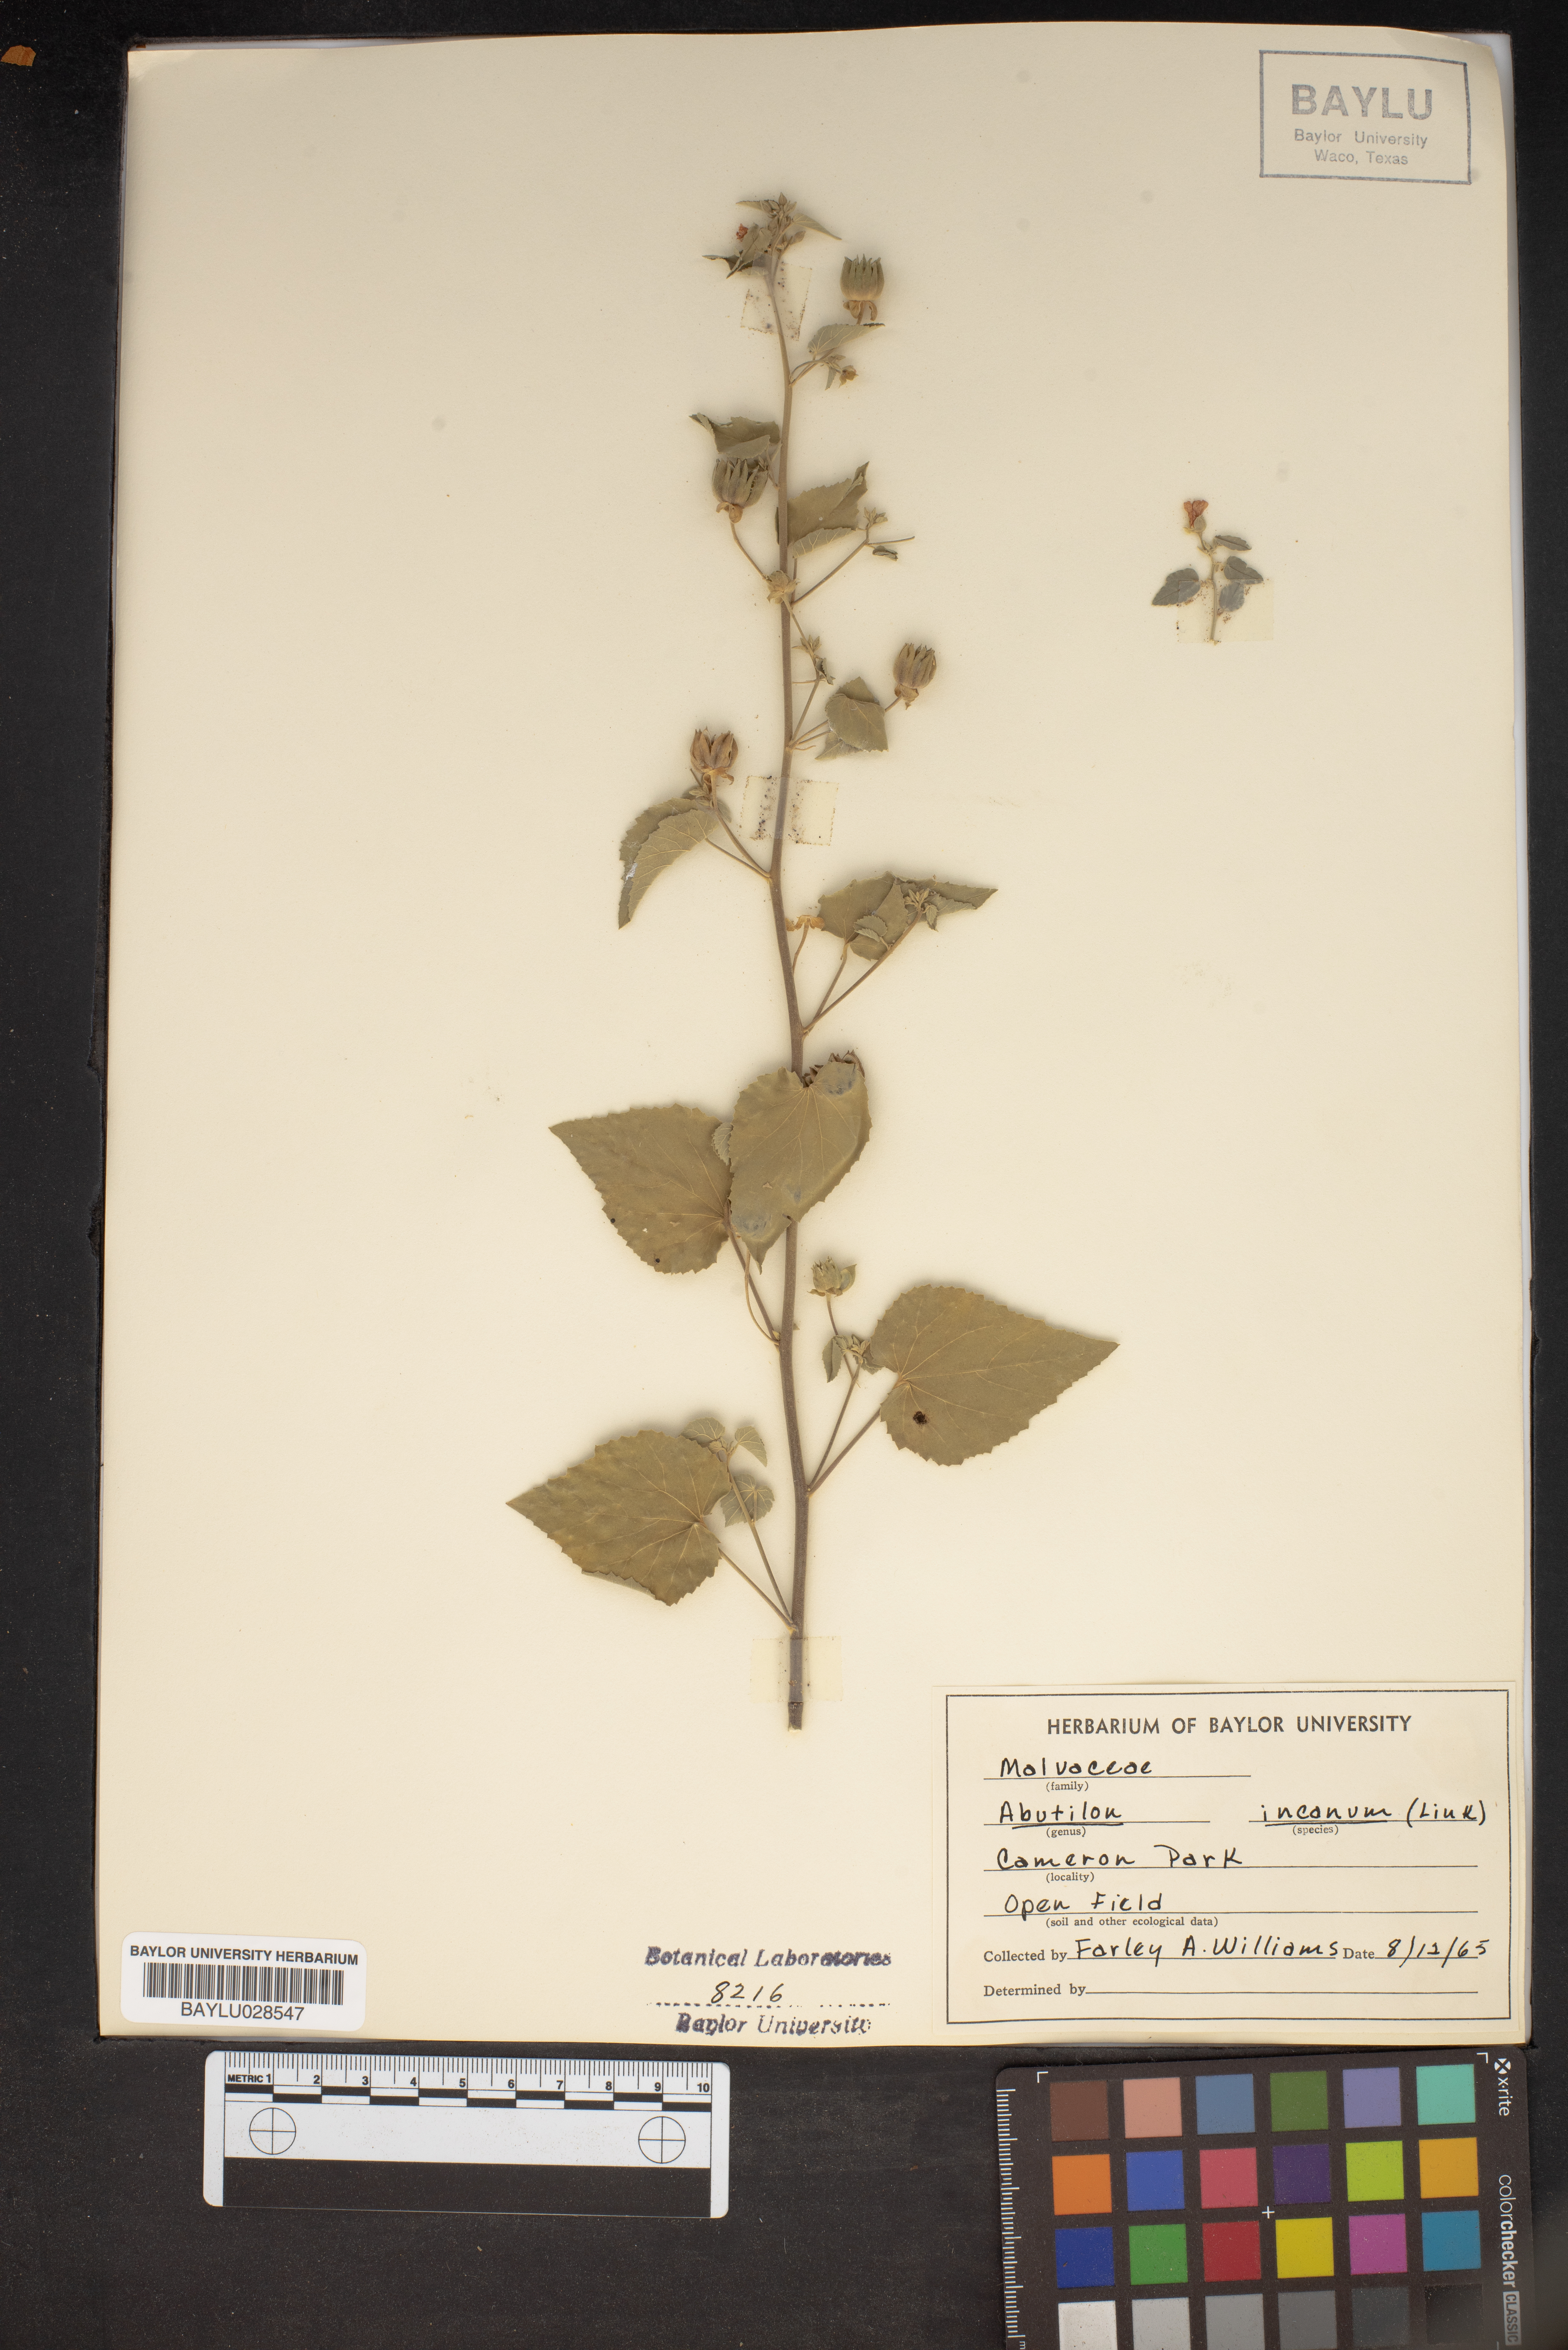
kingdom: Plantae
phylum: Tracheophyta
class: Magnoliopsida
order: Malvales
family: Malvaceae
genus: Abutilon
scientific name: Abutilon incanum
